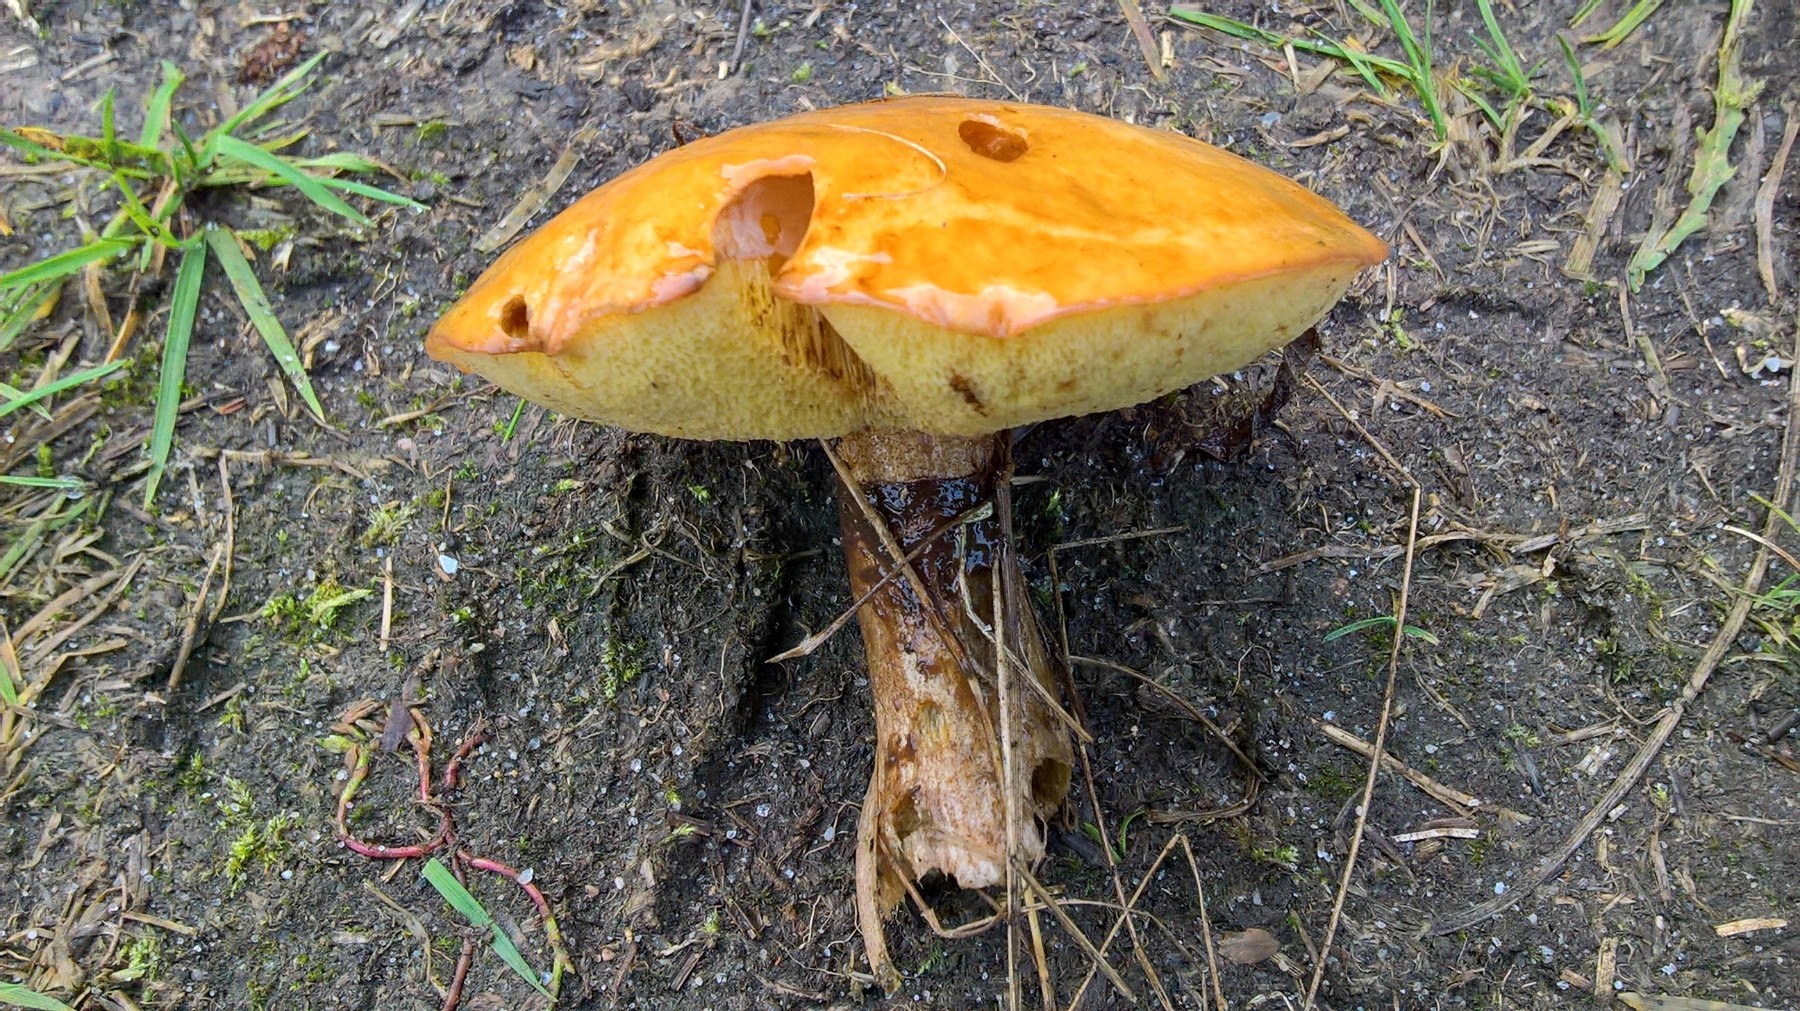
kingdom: Fungi
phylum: Basidiomycota
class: Agaricomycetes
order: Boletales
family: Suillaceae
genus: Suillus
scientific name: Suillus luteus
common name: brungul slimrørhat
